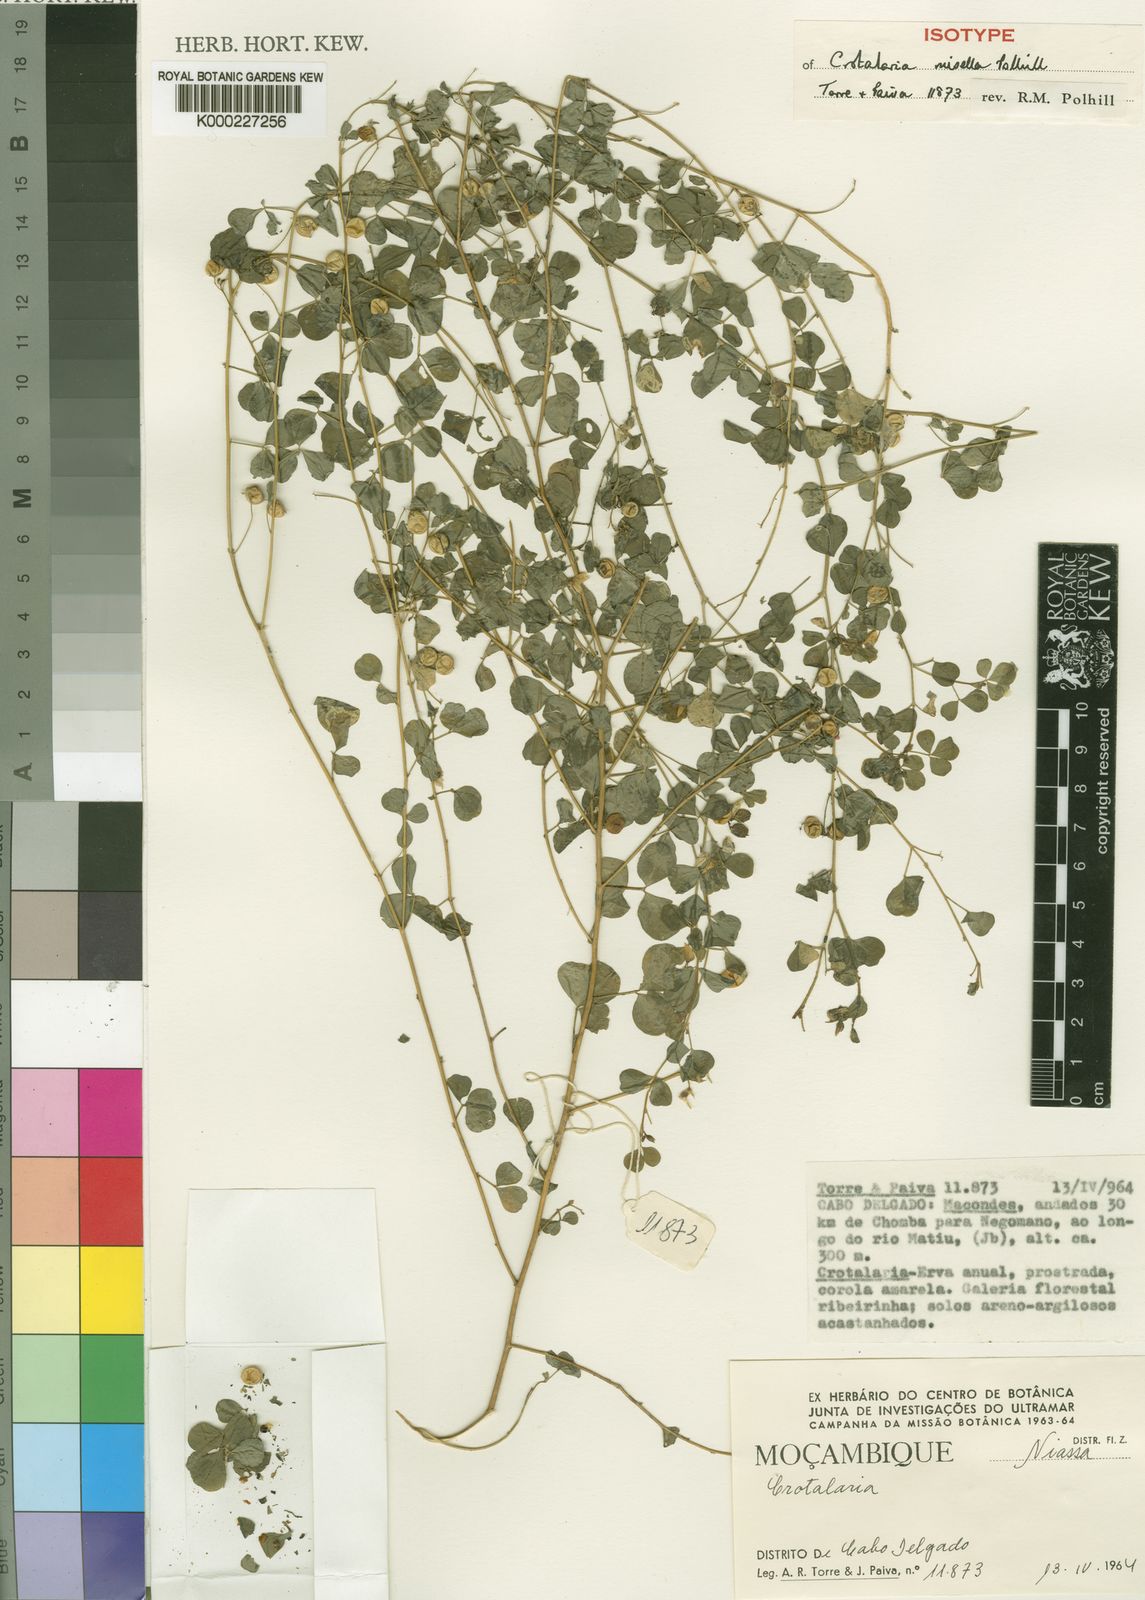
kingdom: Plantae
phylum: Tracheophyta
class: Magnoliopsida
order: Fabales
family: Fabaceae
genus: Crotalaria
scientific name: Crotalaria misella
